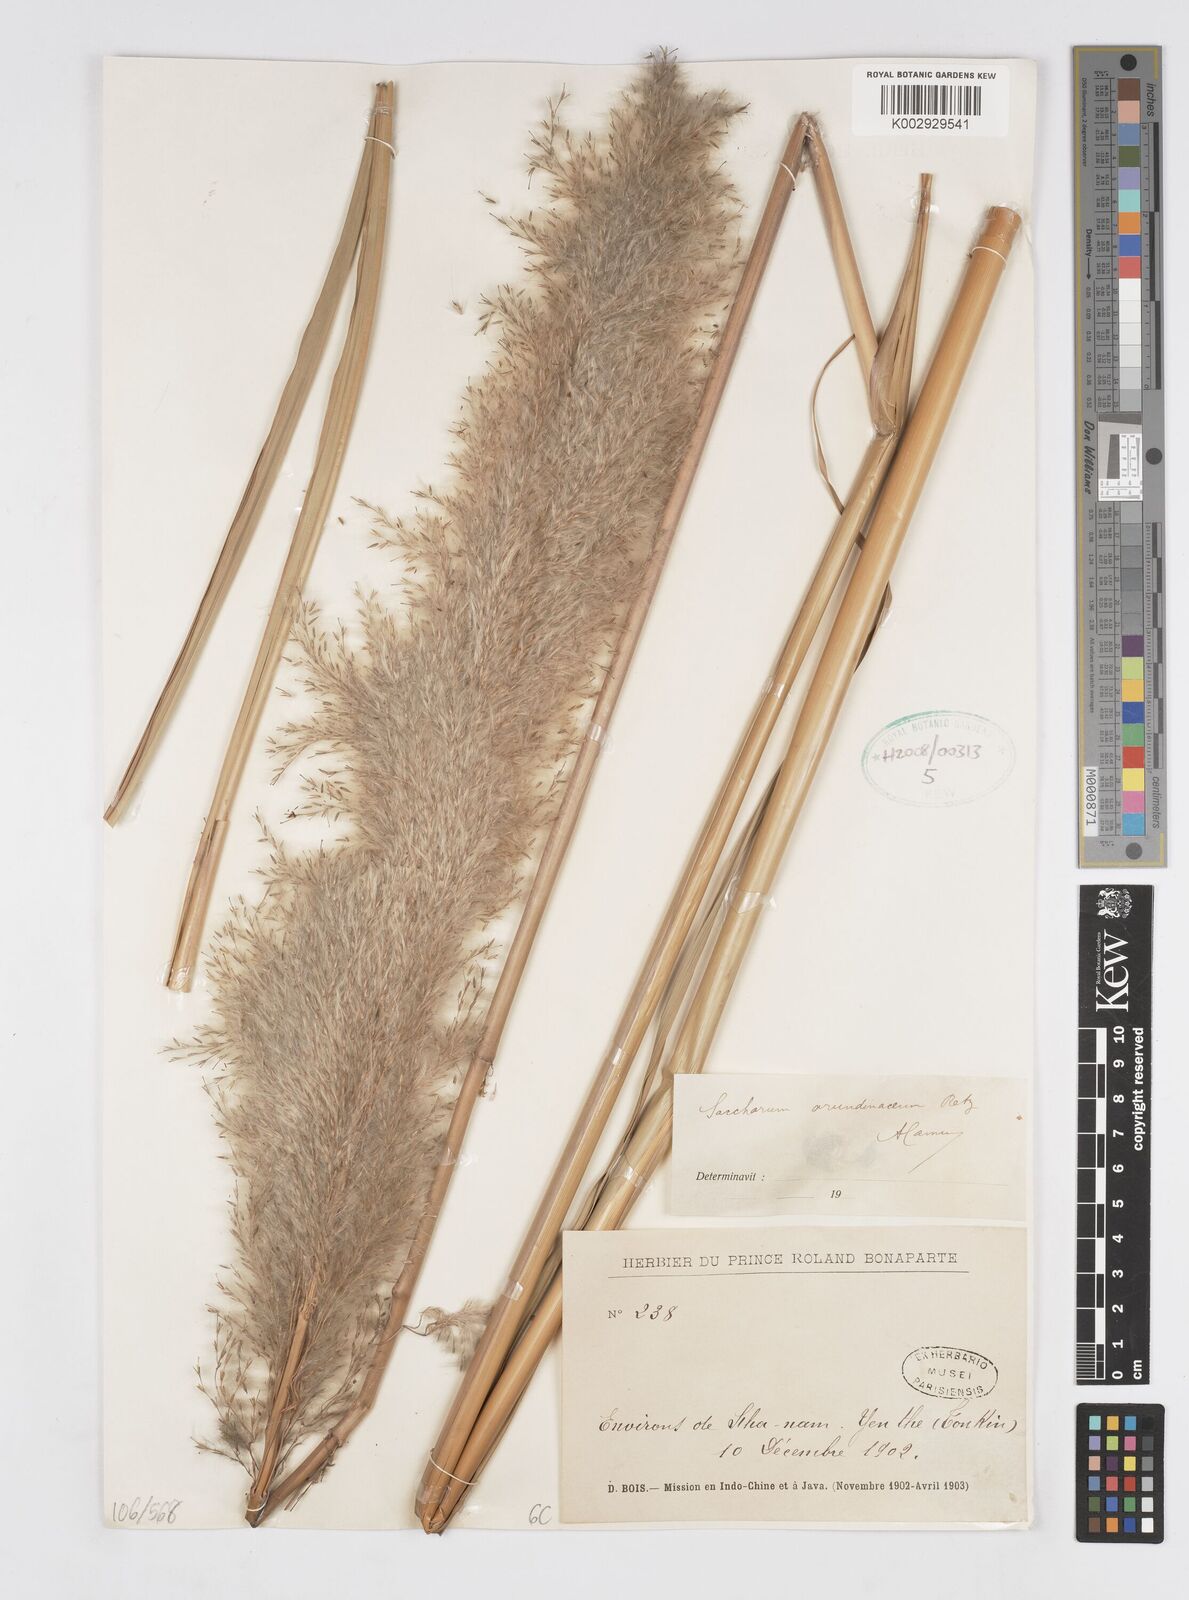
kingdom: Plantae
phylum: Tracheophyta
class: Liliopsida
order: Poales
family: Poaceae
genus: Tripidium
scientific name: Tripidium arundinaceum
